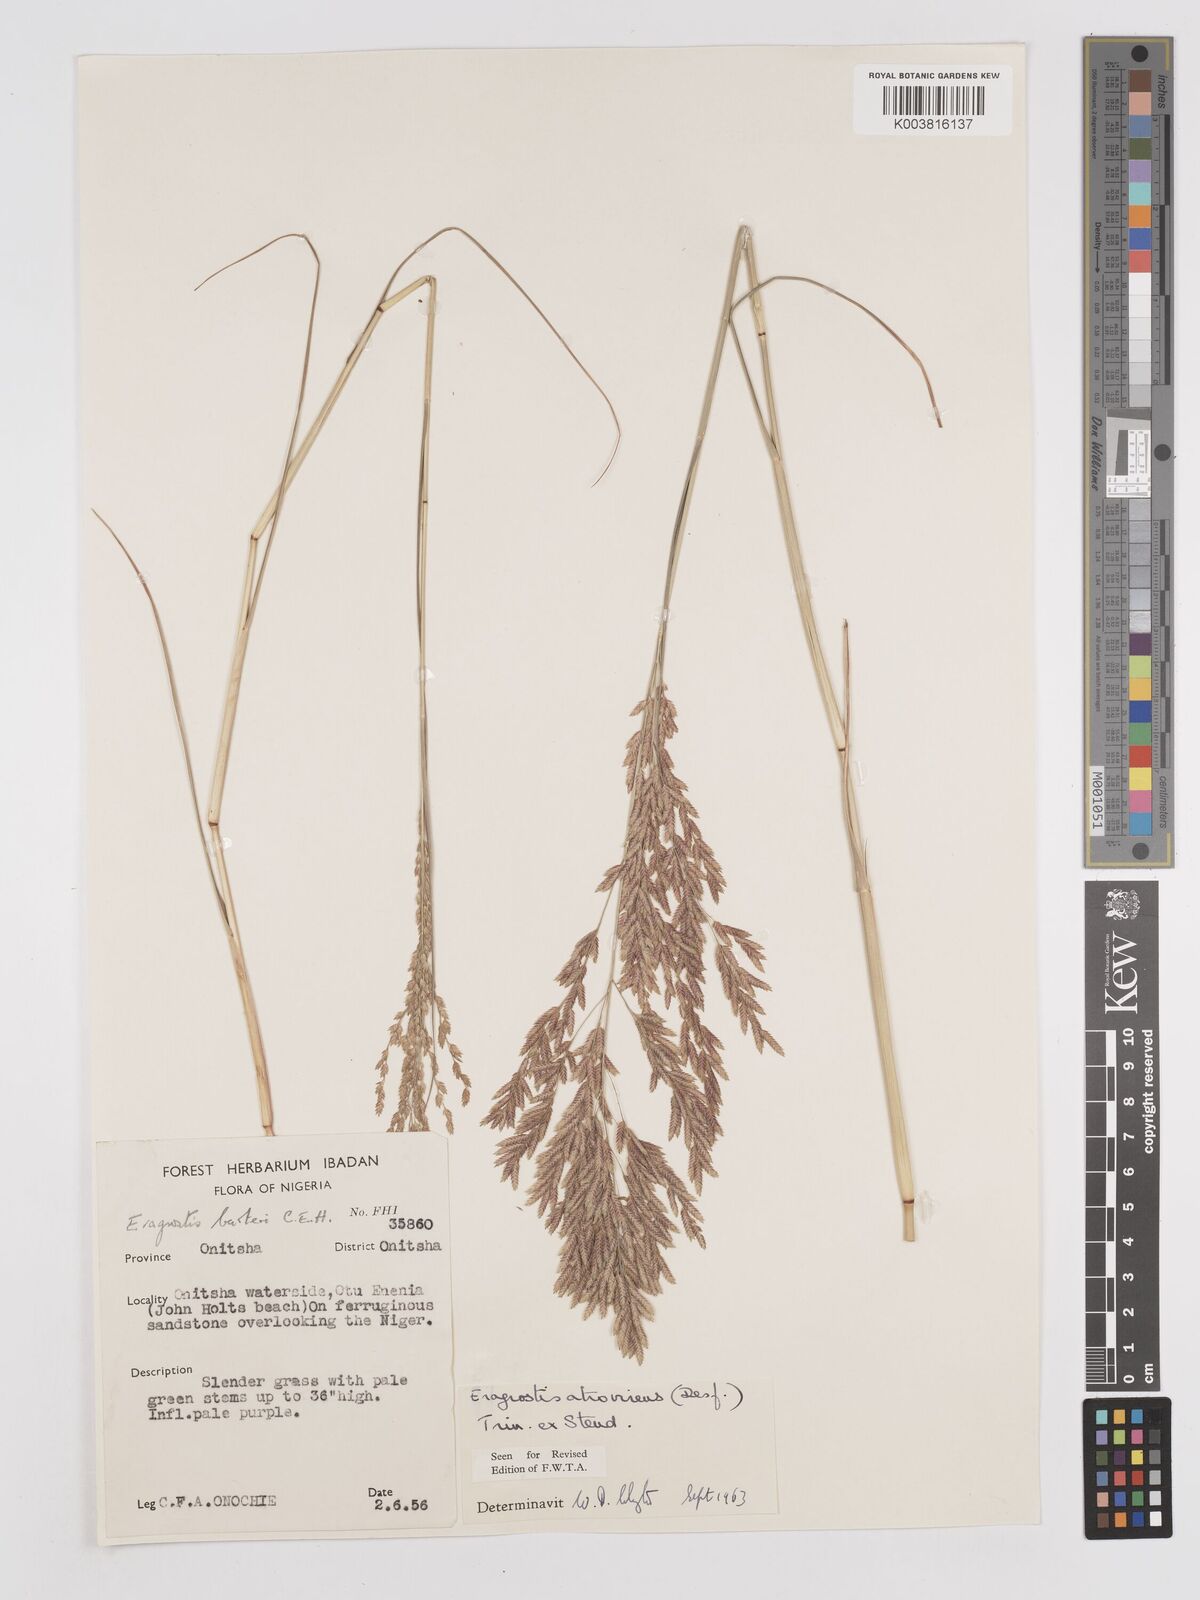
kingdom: Plantae
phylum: Tracheophyta
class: Liliopsida
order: Poales
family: Poaceae
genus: Eragrostis
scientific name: Eragrostis atrovirens
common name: Thalia lovegrass
